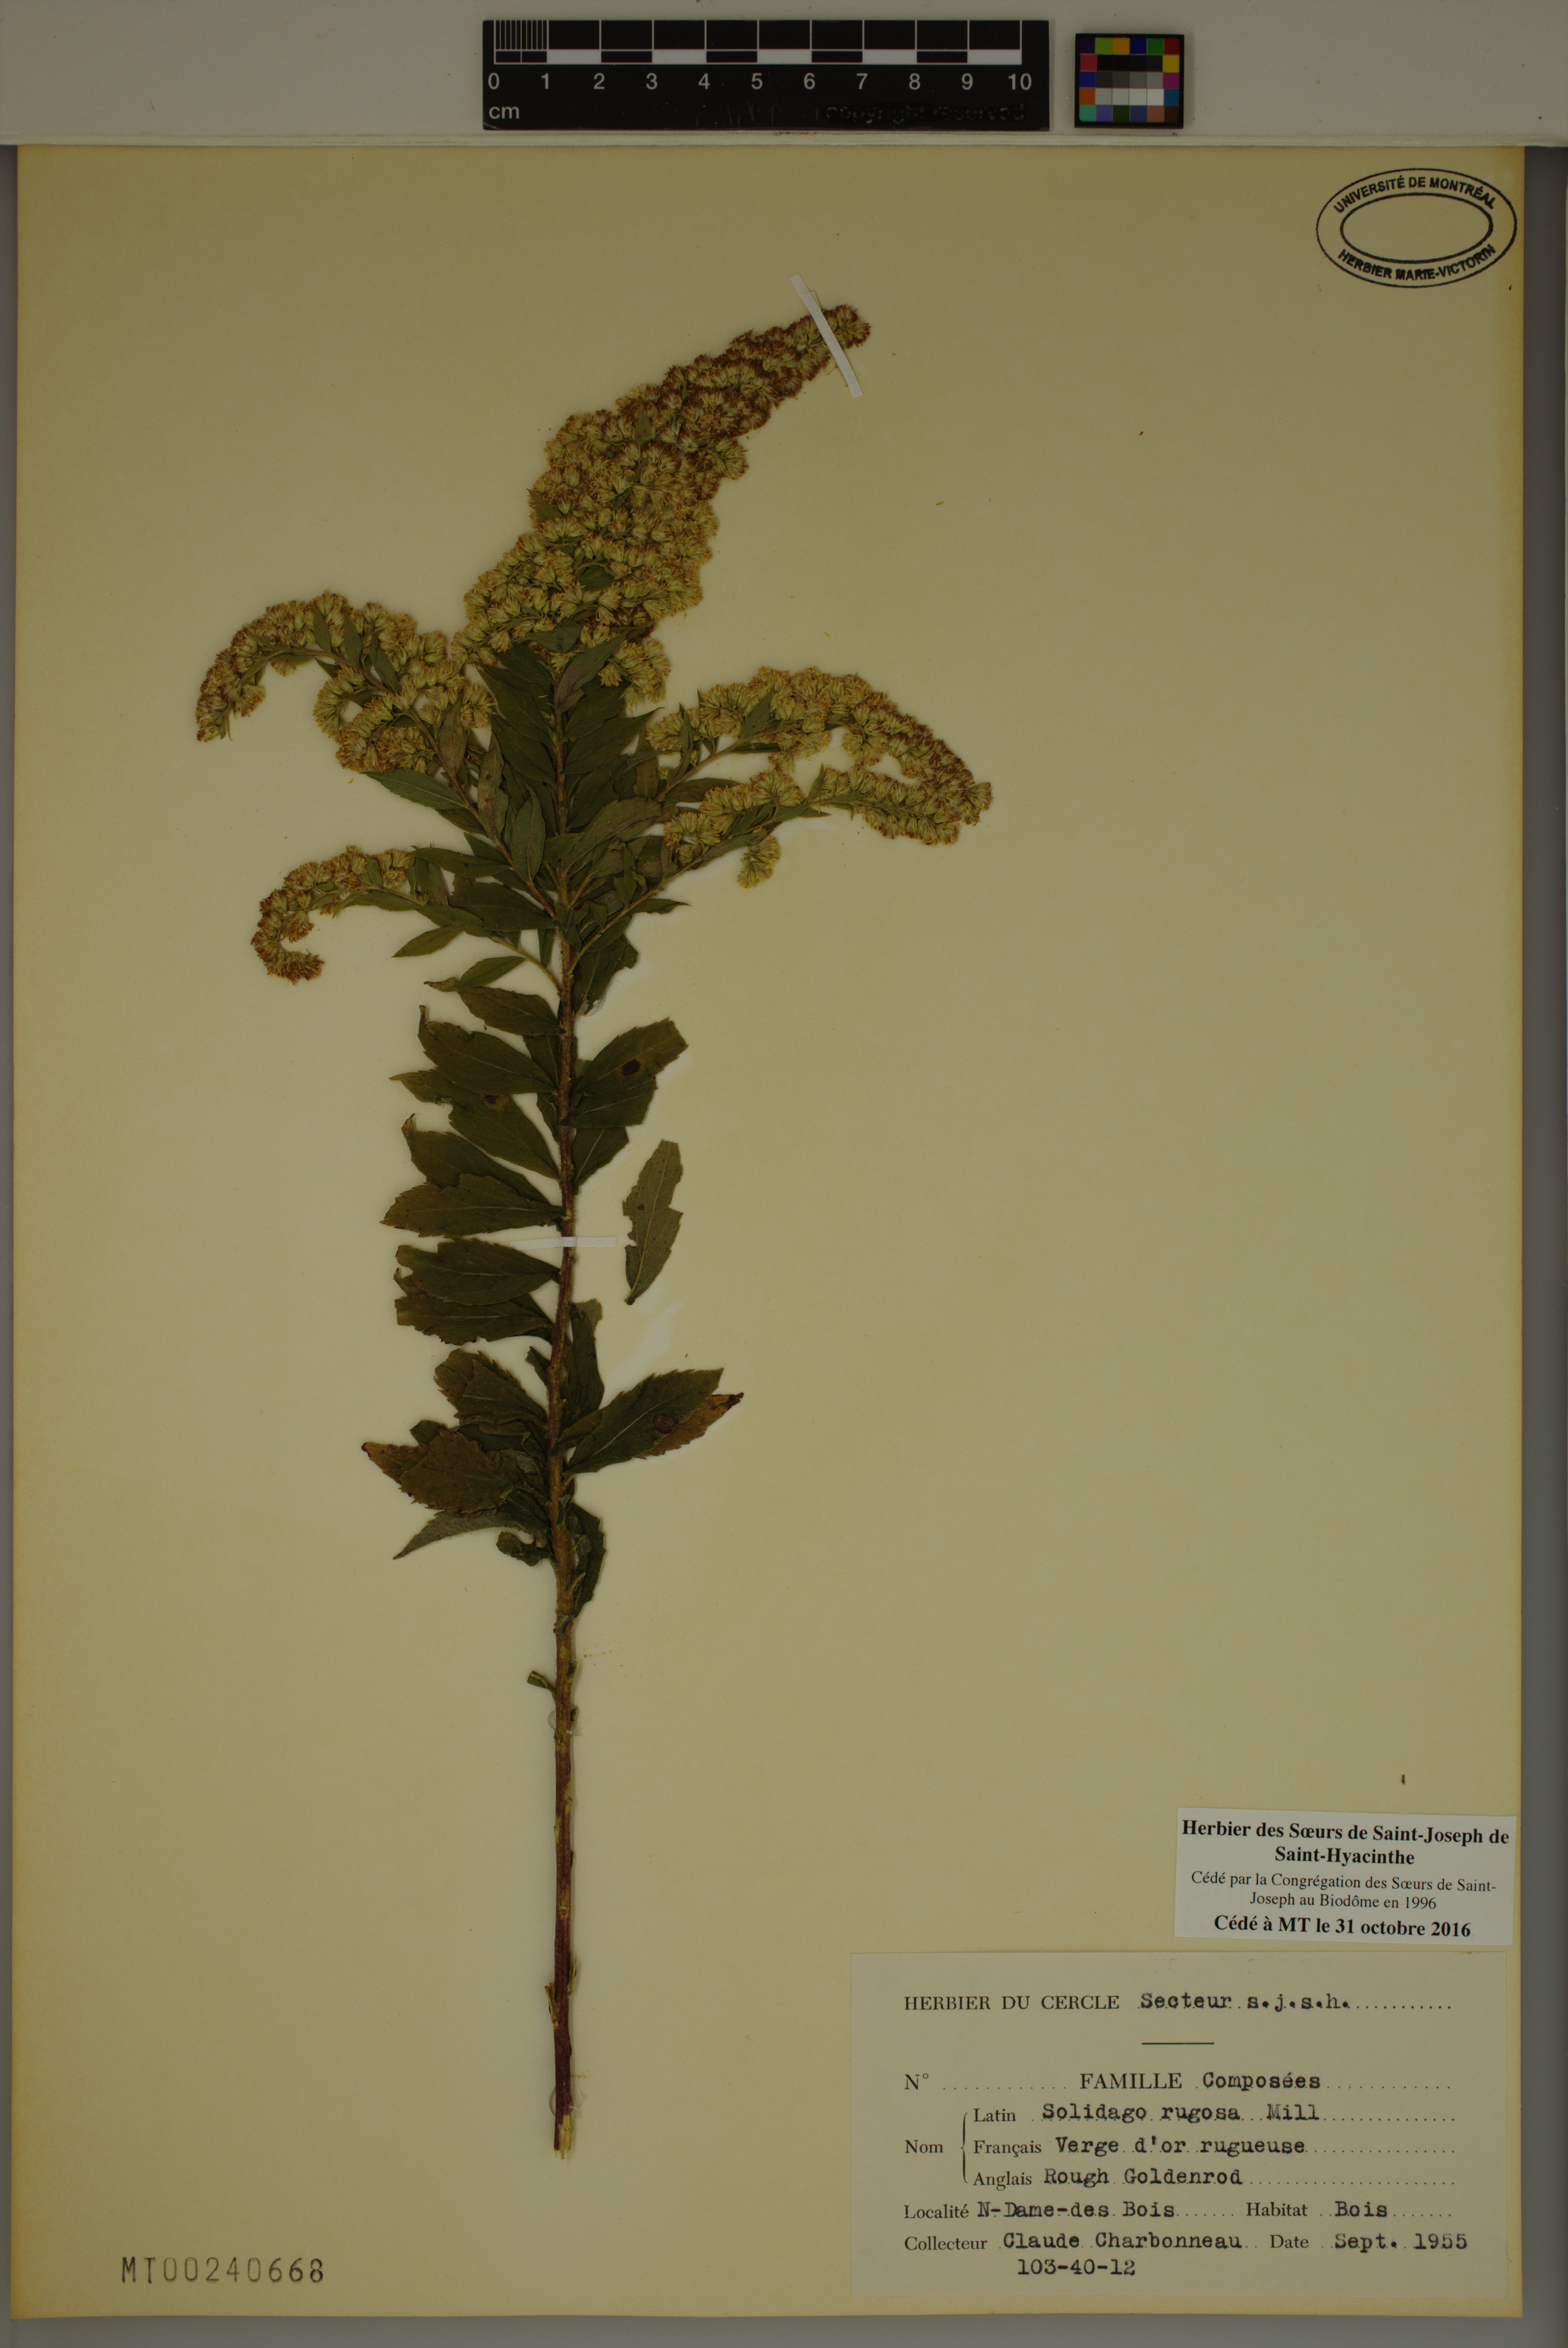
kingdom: Plantae
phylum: Tracheophyta
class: Magnoliopsida
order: Asterales
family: Asteraceae
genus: Solidago
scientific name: Solidago rugosa
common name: Rough-stemmed goldenrod
